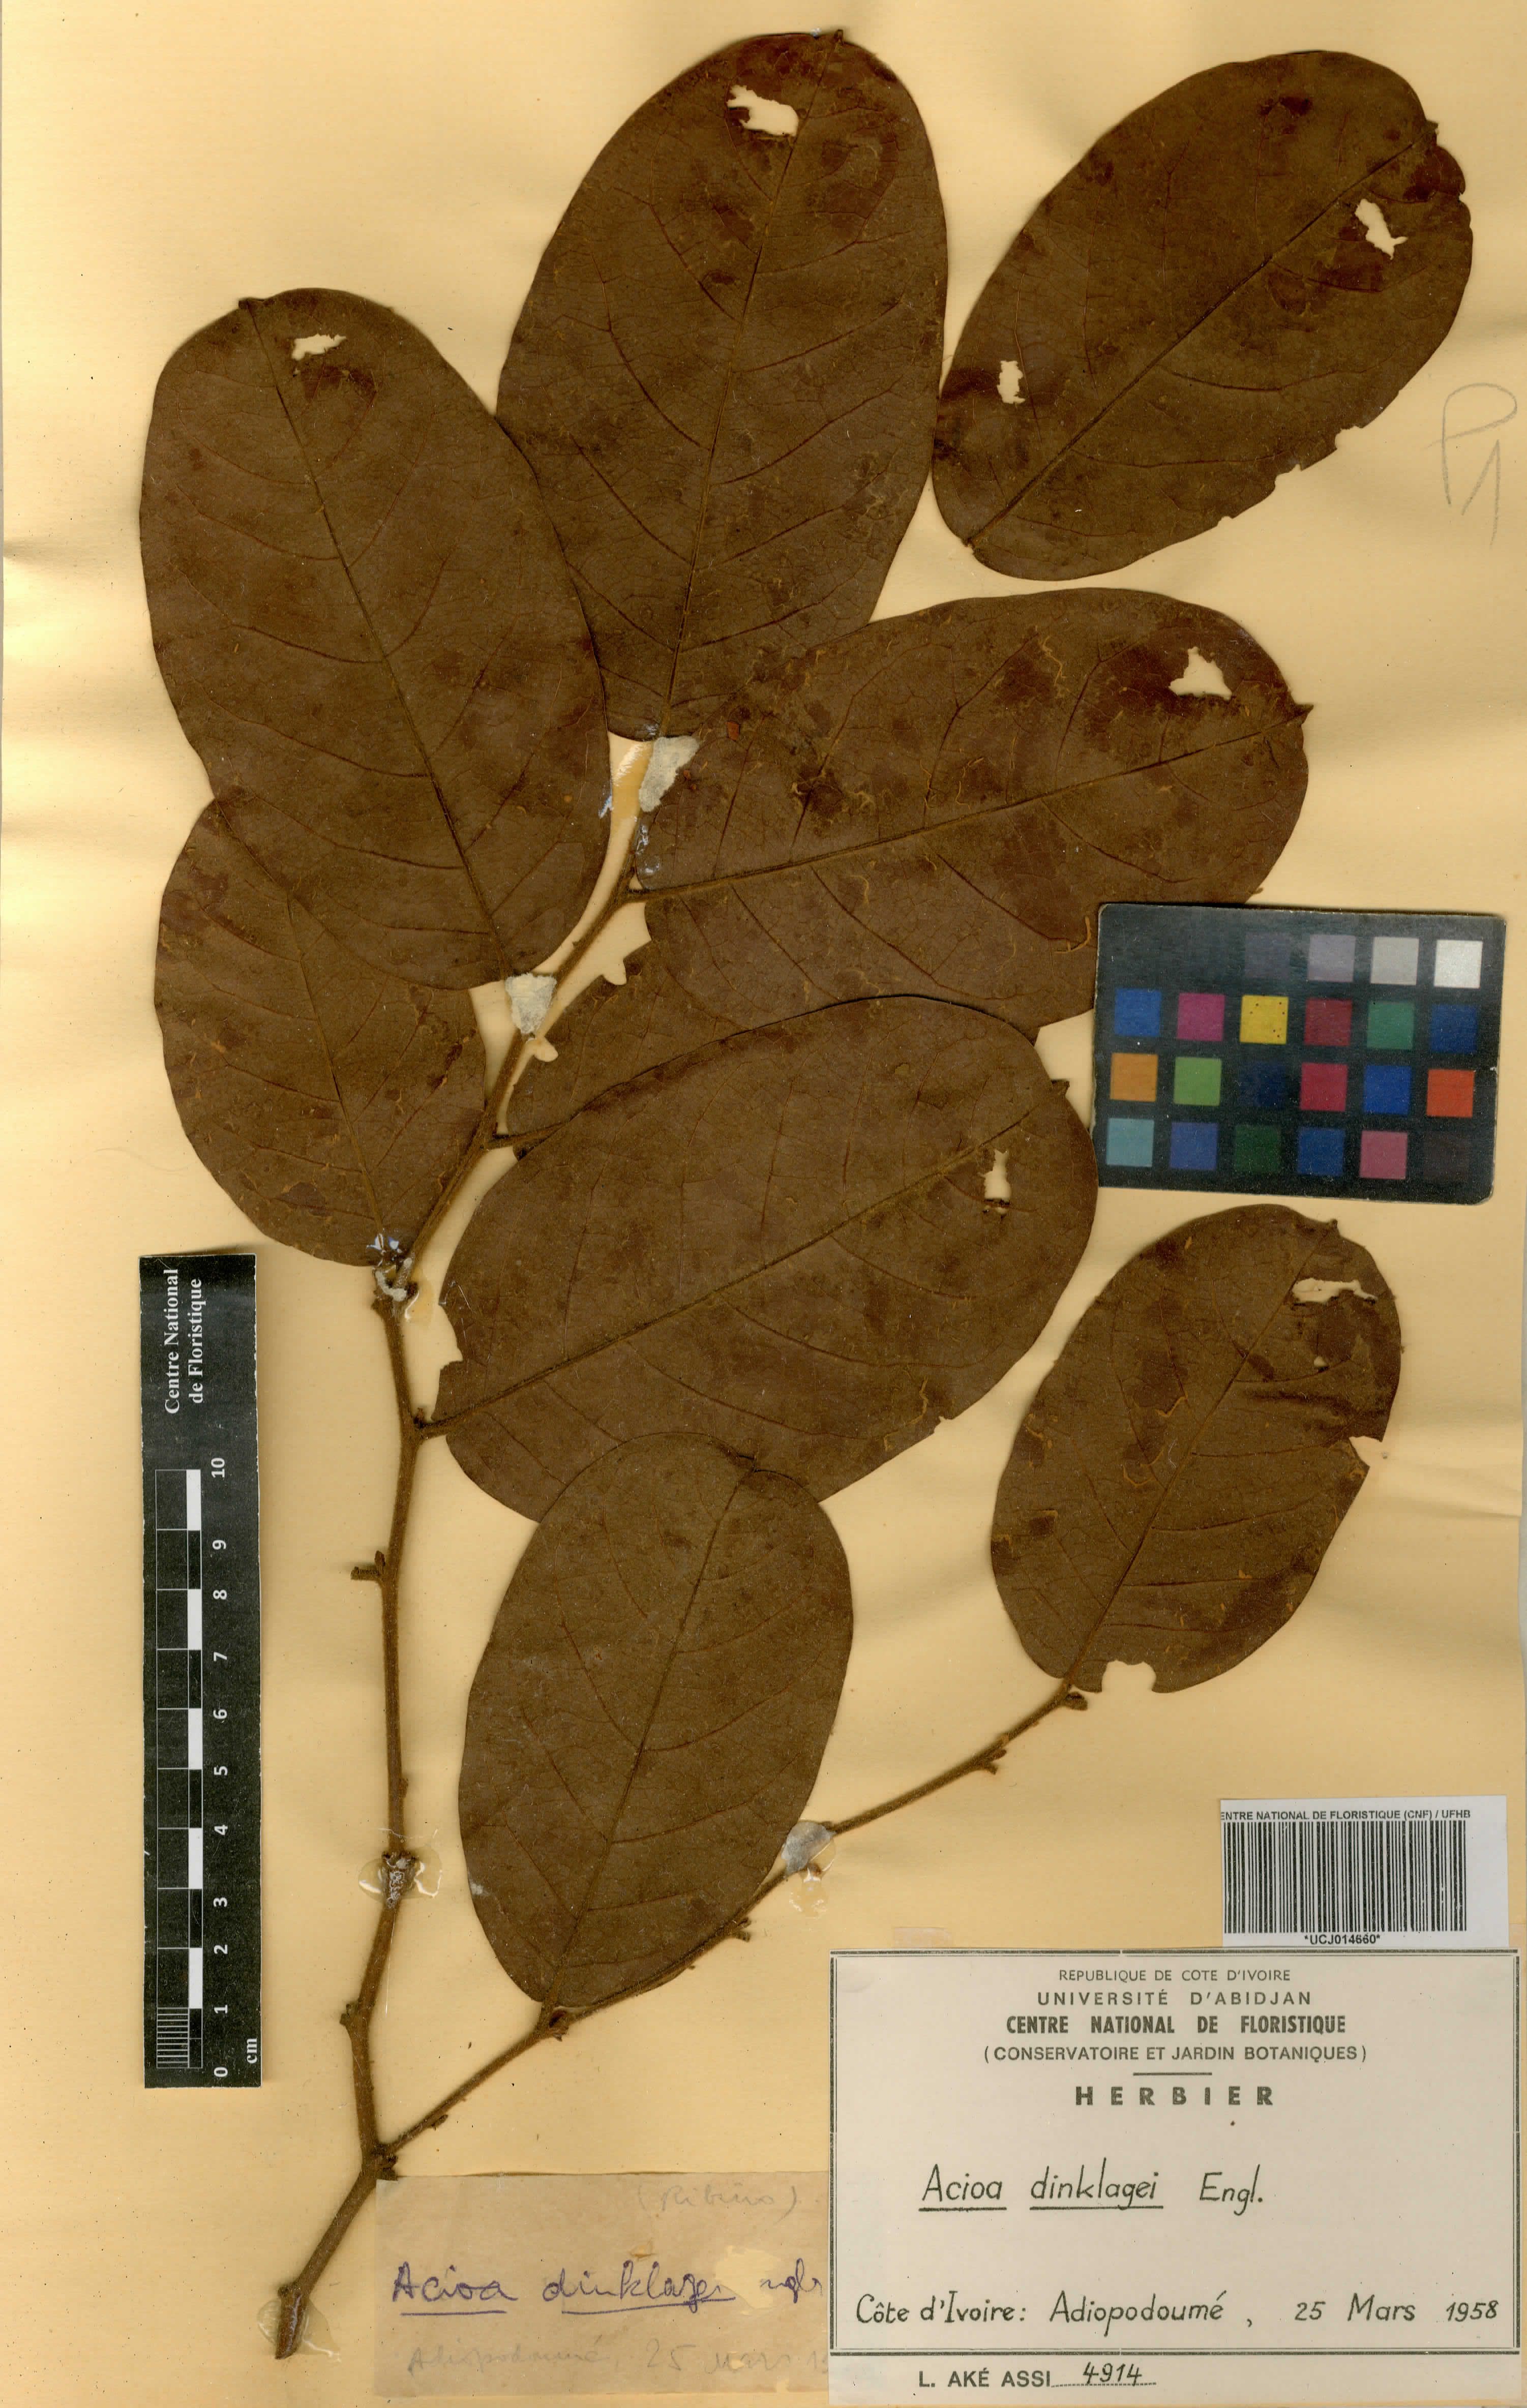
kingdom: Plantae
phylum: Tracheophyta
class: Magnoliopsida
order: Malpighiales
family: Chrysobalanaceae
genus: Dactyladenia
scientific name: Dactyladenia dinklagei
